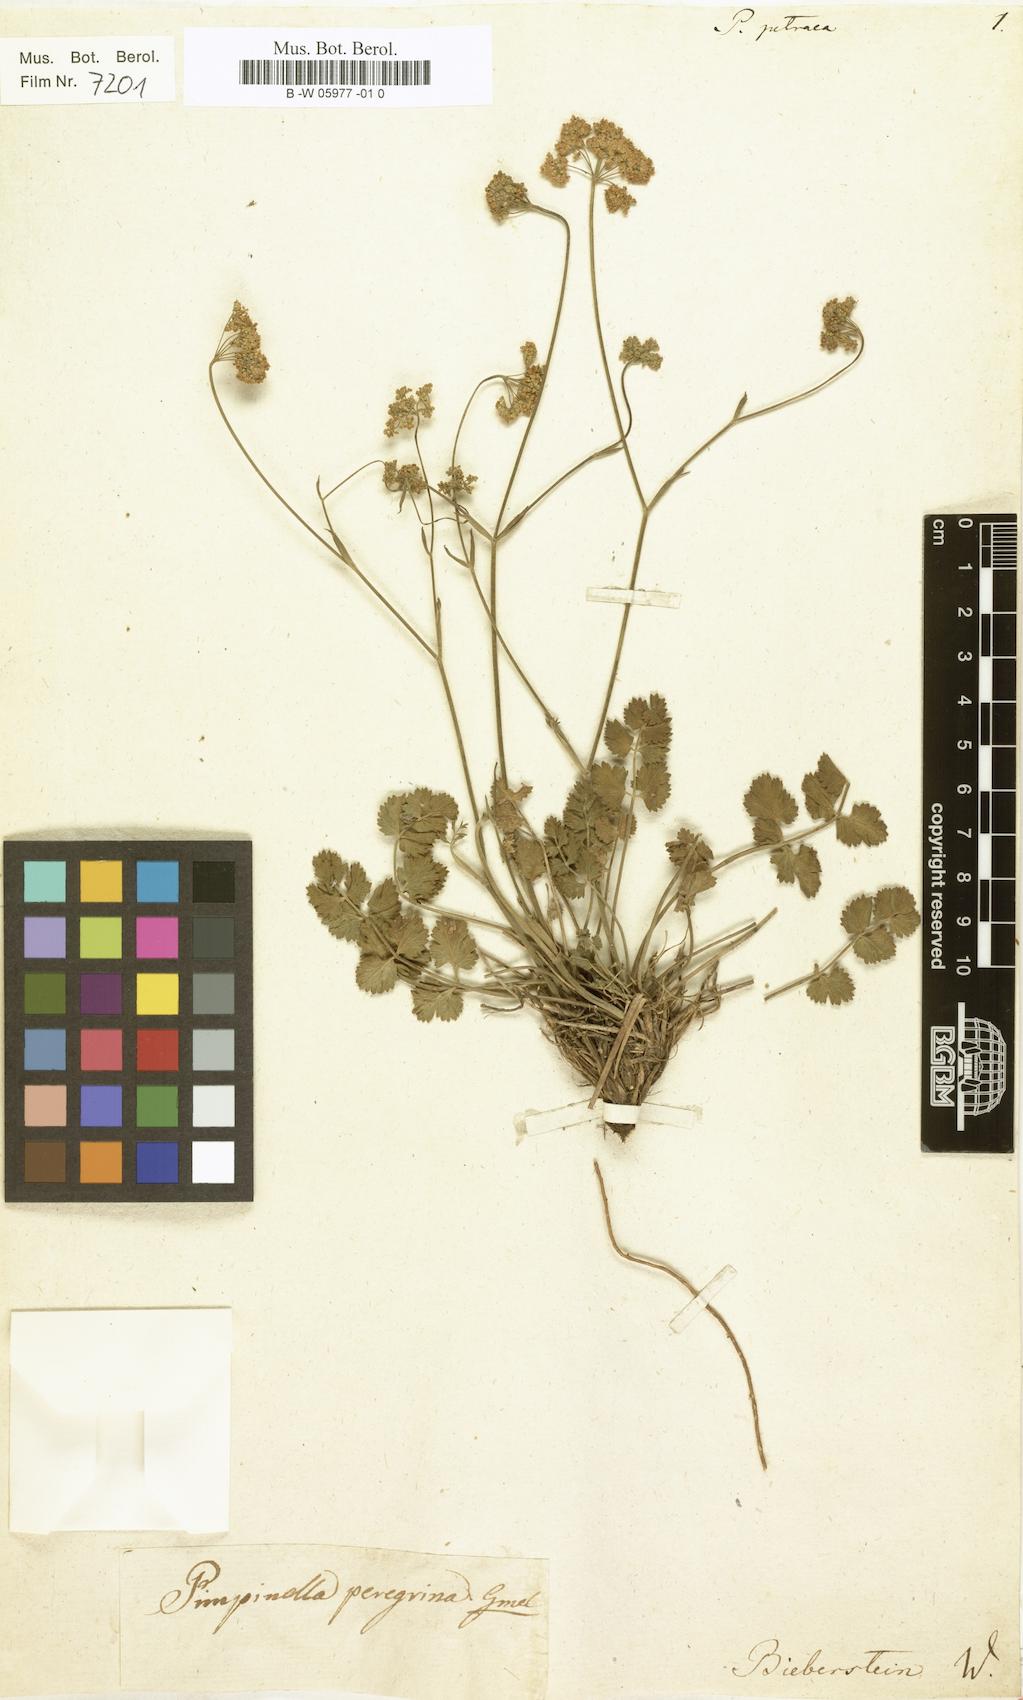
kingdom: Plantae
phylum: Tracheophyta
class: Magnoliopsida
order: Apiales
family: Apiaceae
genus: Pimpinella
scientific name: Pimpinella
